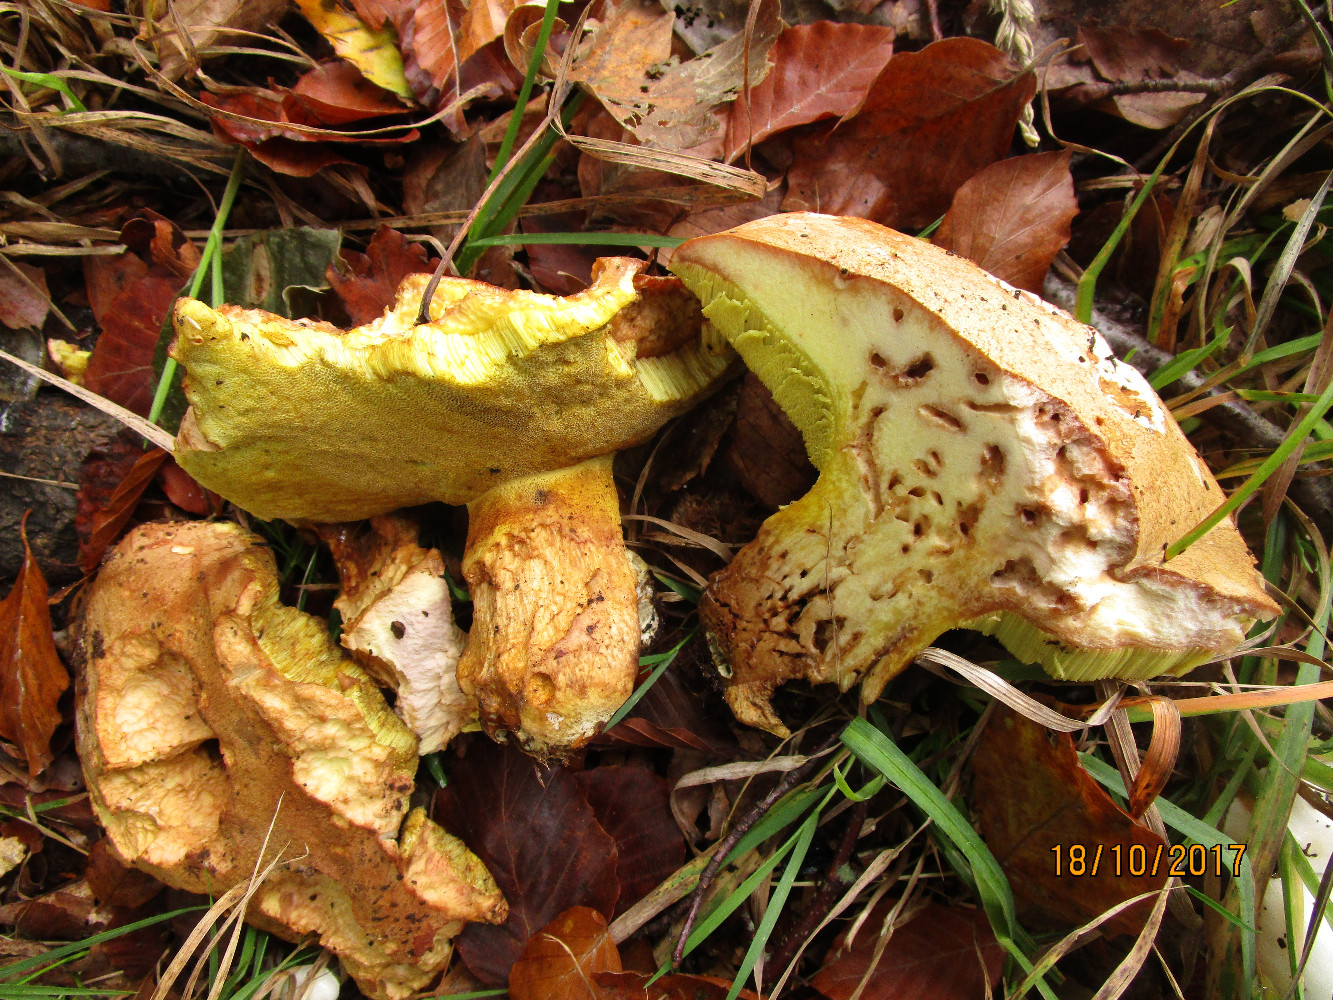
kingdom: Fungi
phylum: Basidiomycota
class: Agaricomycetes
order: Boletales
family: Boletaceae
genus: Butyriboletus
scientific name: Butyriboletus appendiculatus
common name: tenstokket rørhat
